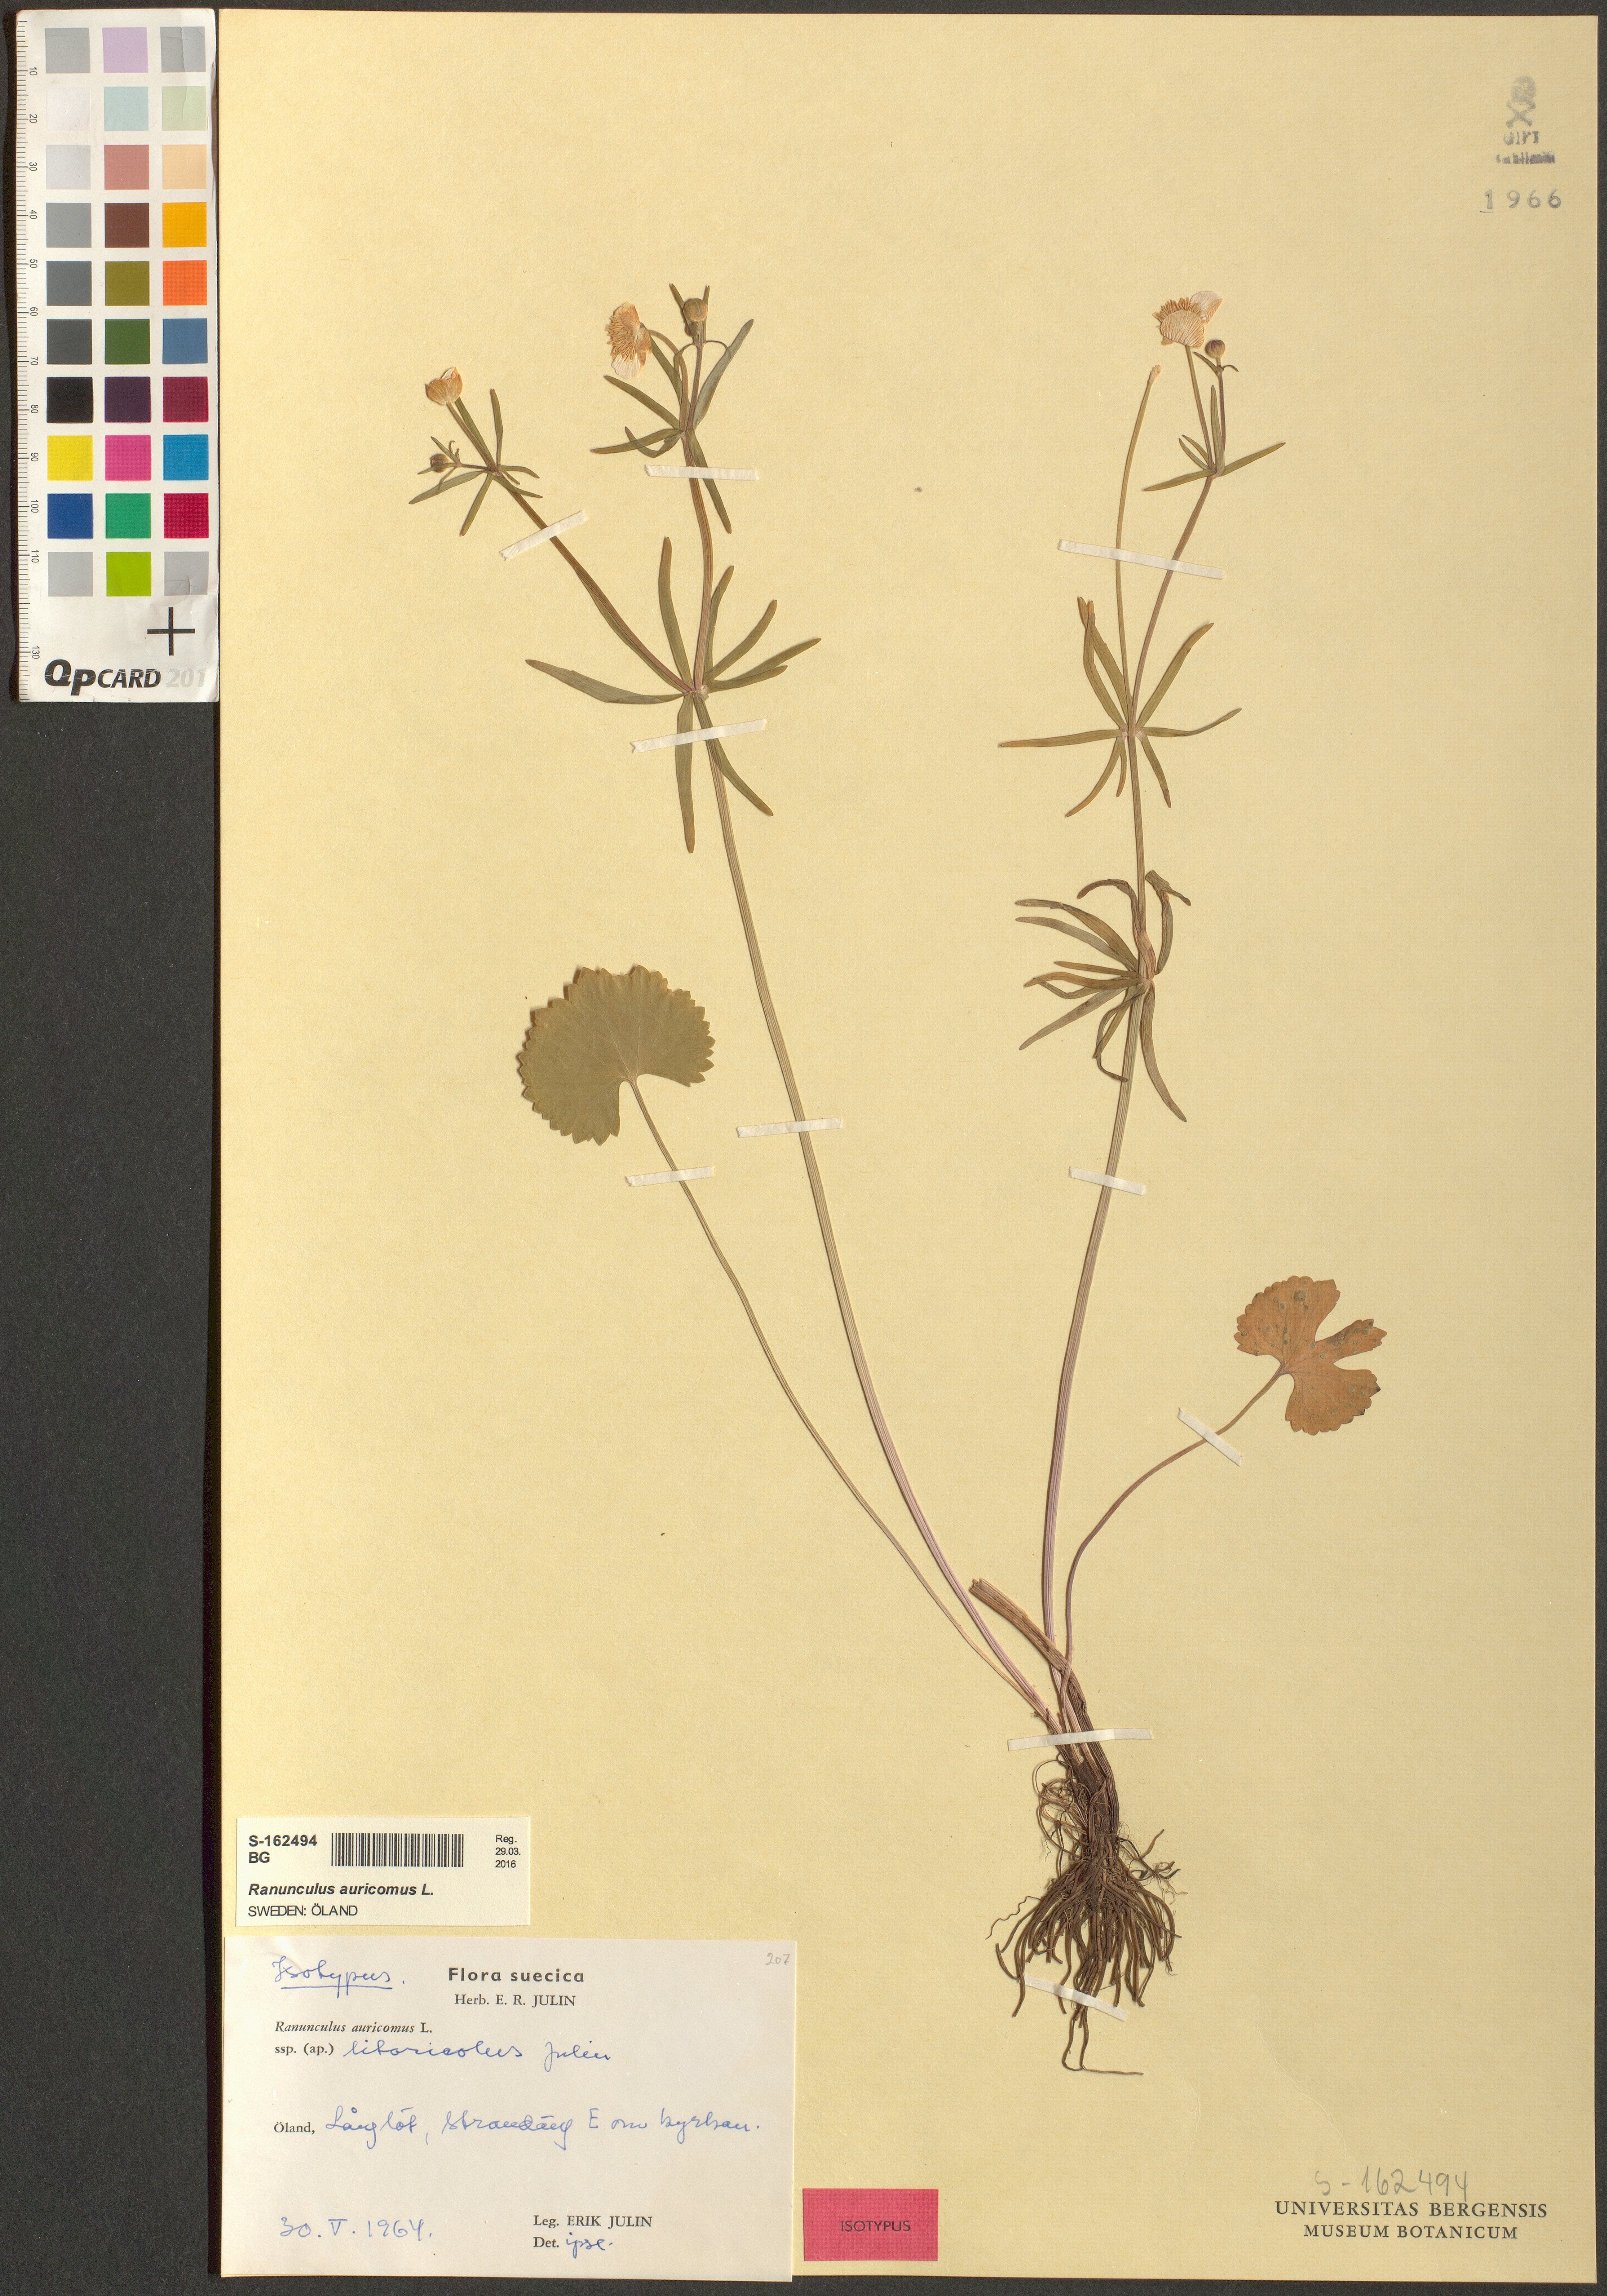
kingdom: Plantae
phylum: Tracheophyta
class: Magnoliopsida
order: Ranunculales
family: Ranunculaceae
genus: Ranunculus
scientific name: Ranunculus auricomus
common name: Goldilocks buttercup
